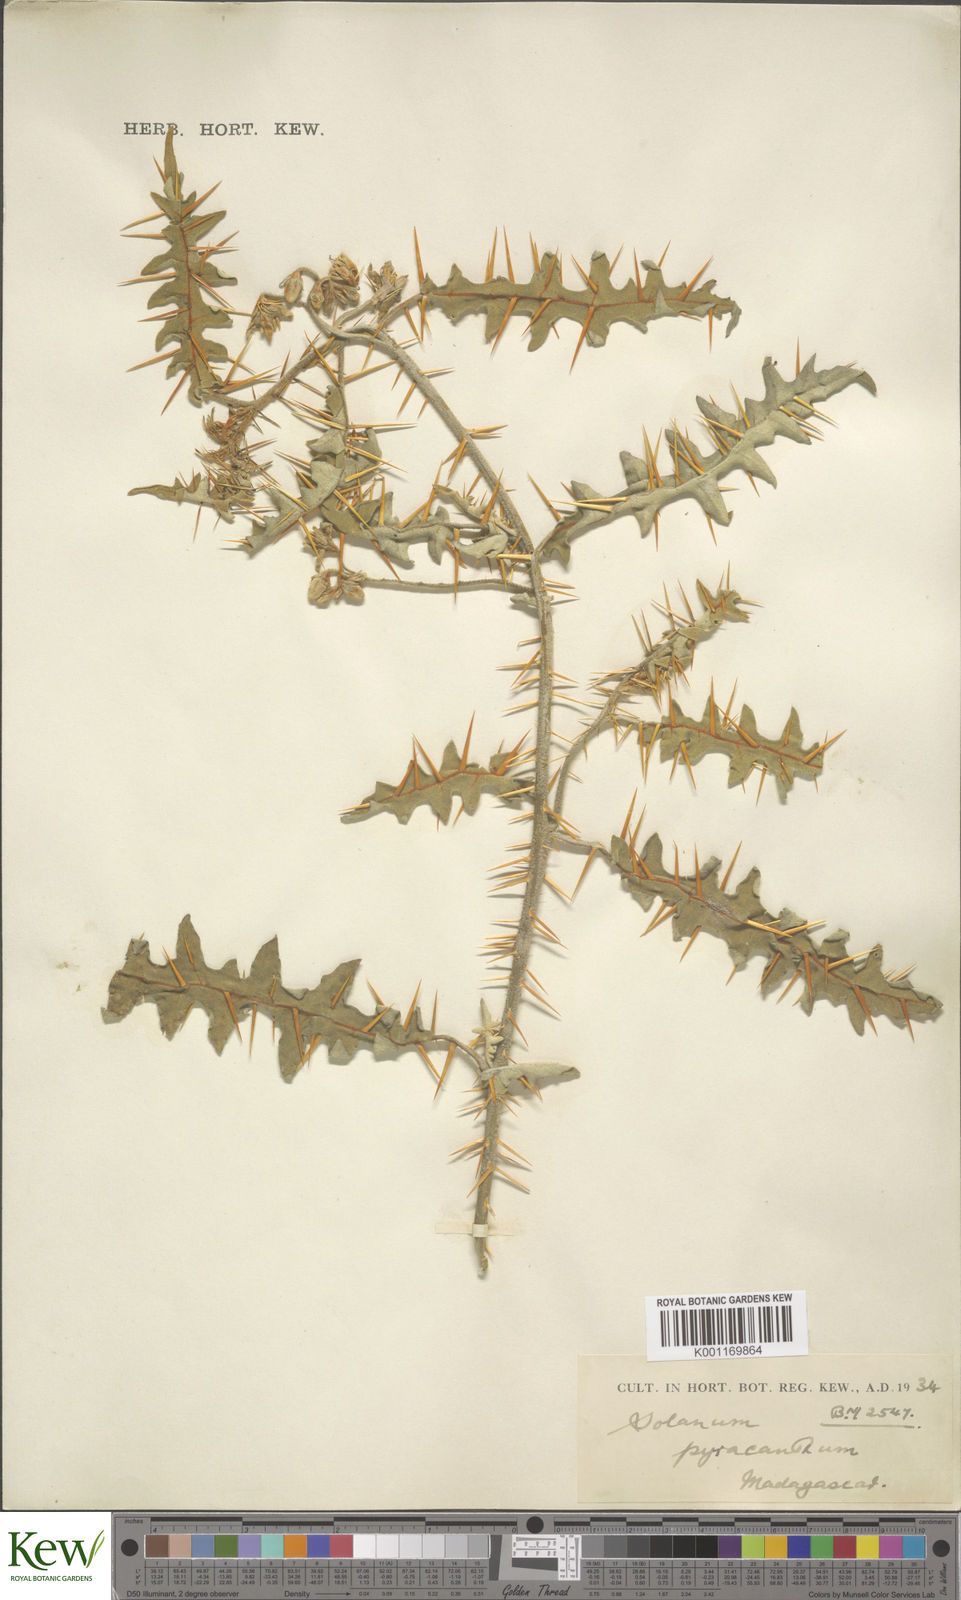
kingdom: Plantae
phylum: Tracheophyta
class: Magnoliopsida
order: Solanales
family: Solanaceae
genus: Solanum
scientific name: Solanum pyracanthos
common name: Porcupine-tomato
